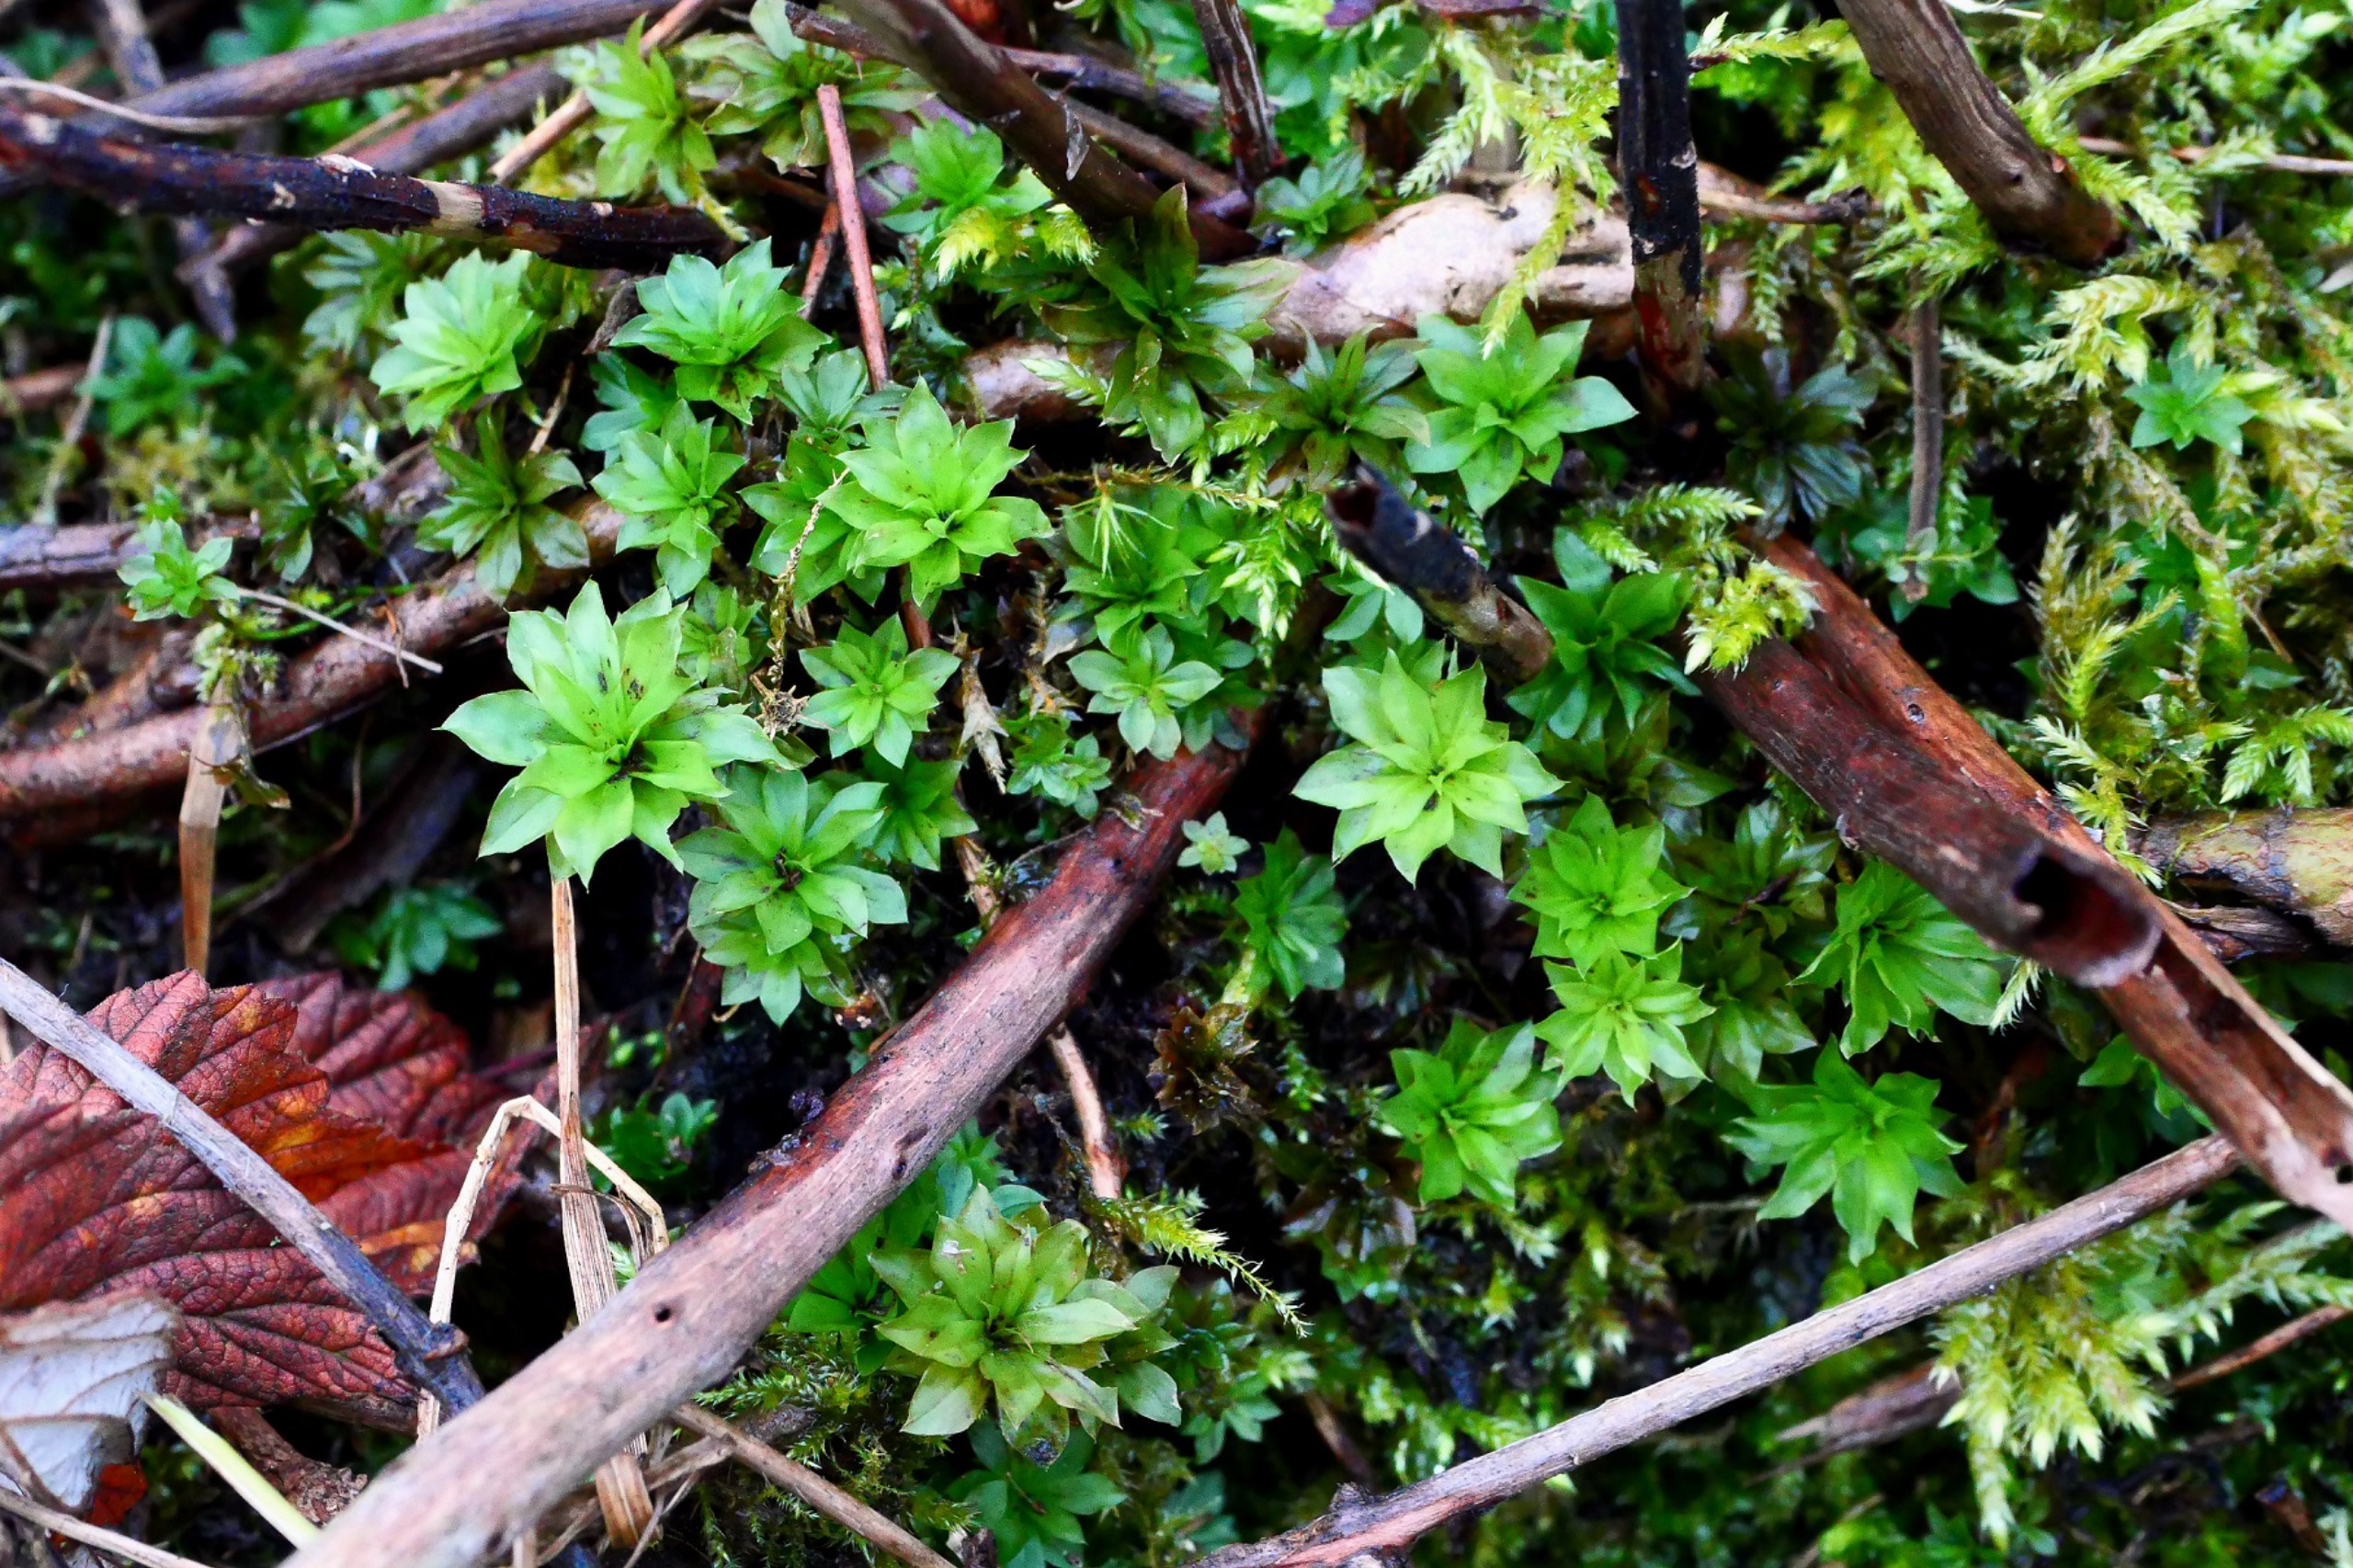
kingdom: Plantae
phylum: Bryophyta
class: Bryopsida
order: Bryales
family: Bryaceae
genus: Rhodobryum
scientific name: Rhodobryum roseum
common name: Stor rosetmos
